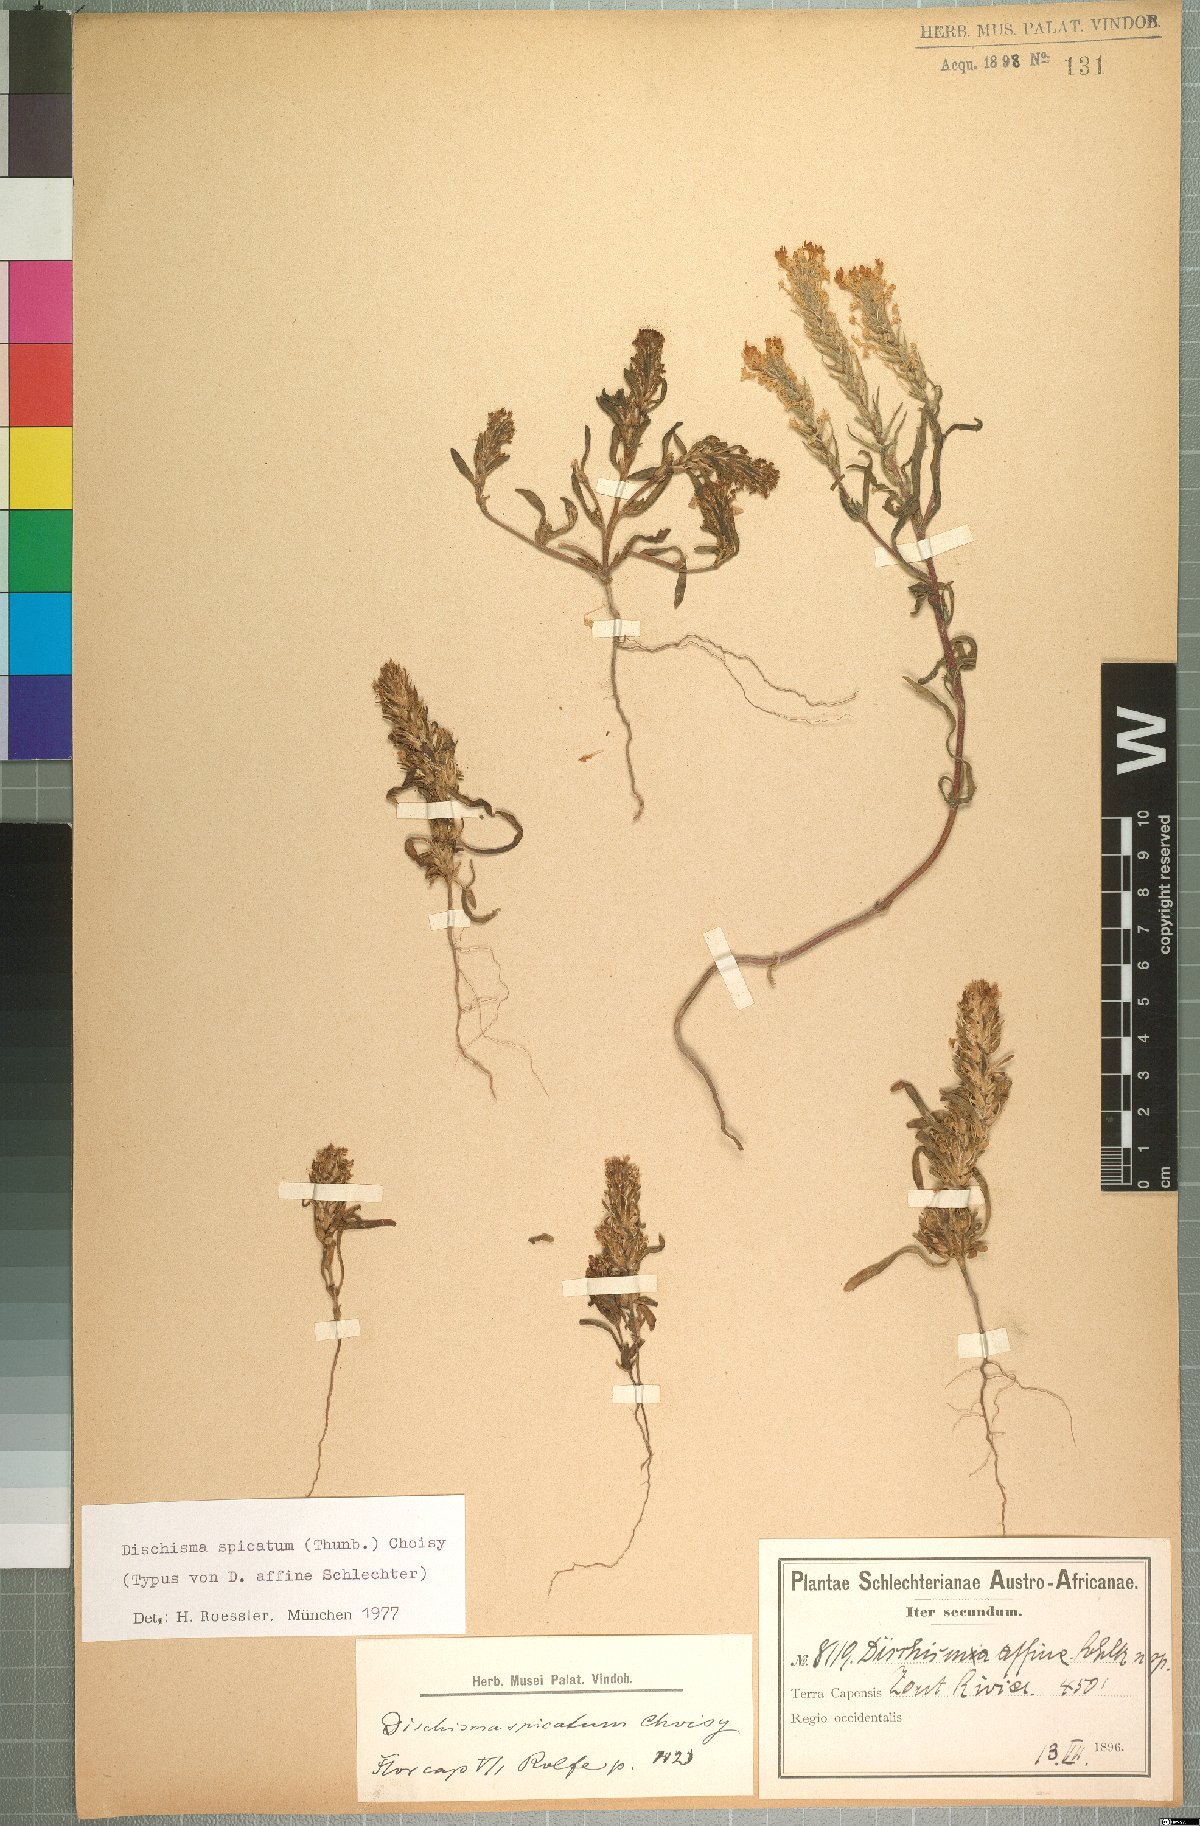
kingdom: Plantae
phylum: Tracheophyta
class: Magnoliopsida
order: Lamiales
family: Scrophulariaceae
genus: Dischisma
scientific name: Dischisma spicatum
